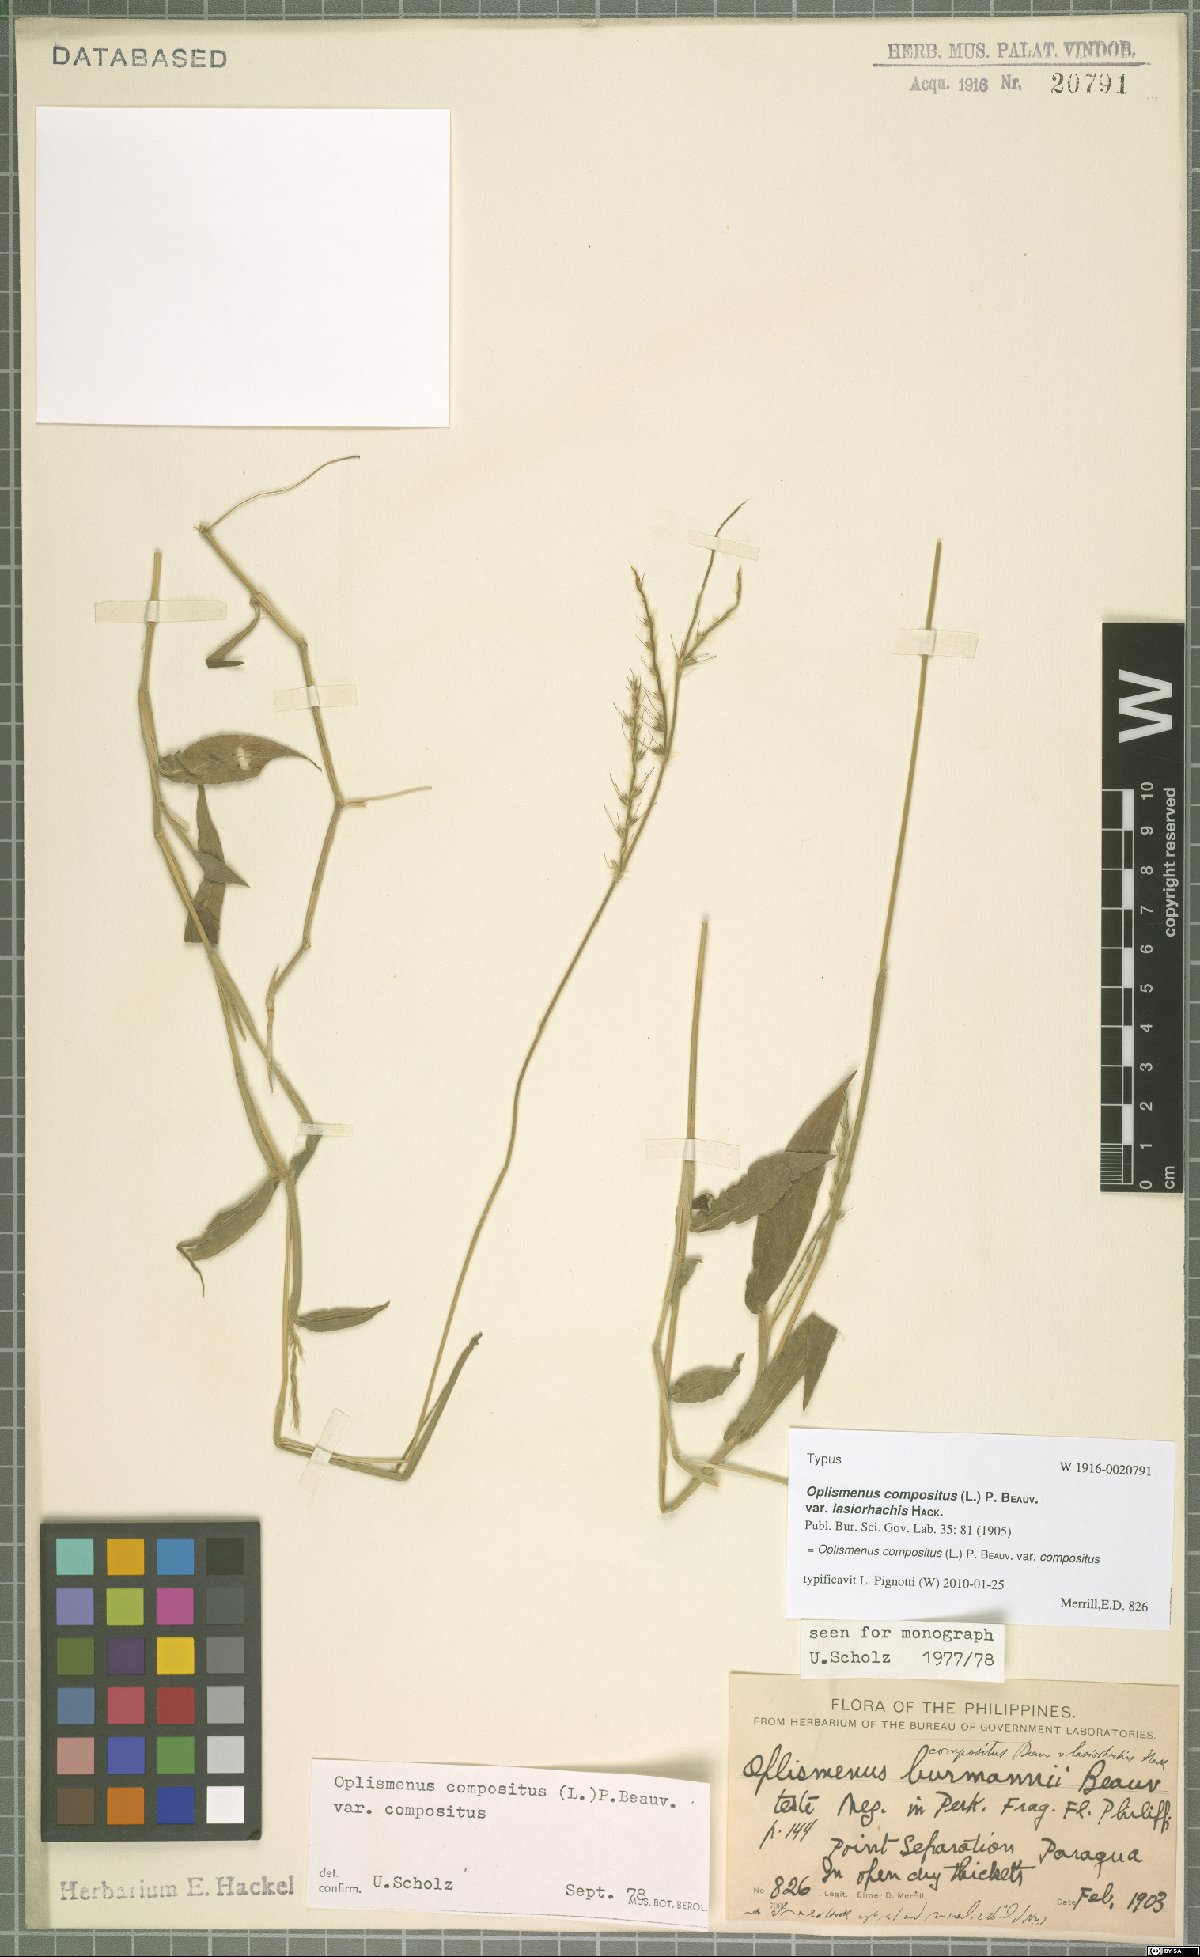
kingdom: Plantae
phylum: Tracheophyta
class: Liliopsida
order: Poales
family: Poaceae
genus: Oplismenus
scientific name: Oplismenus compositus
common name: Running mountain grass
